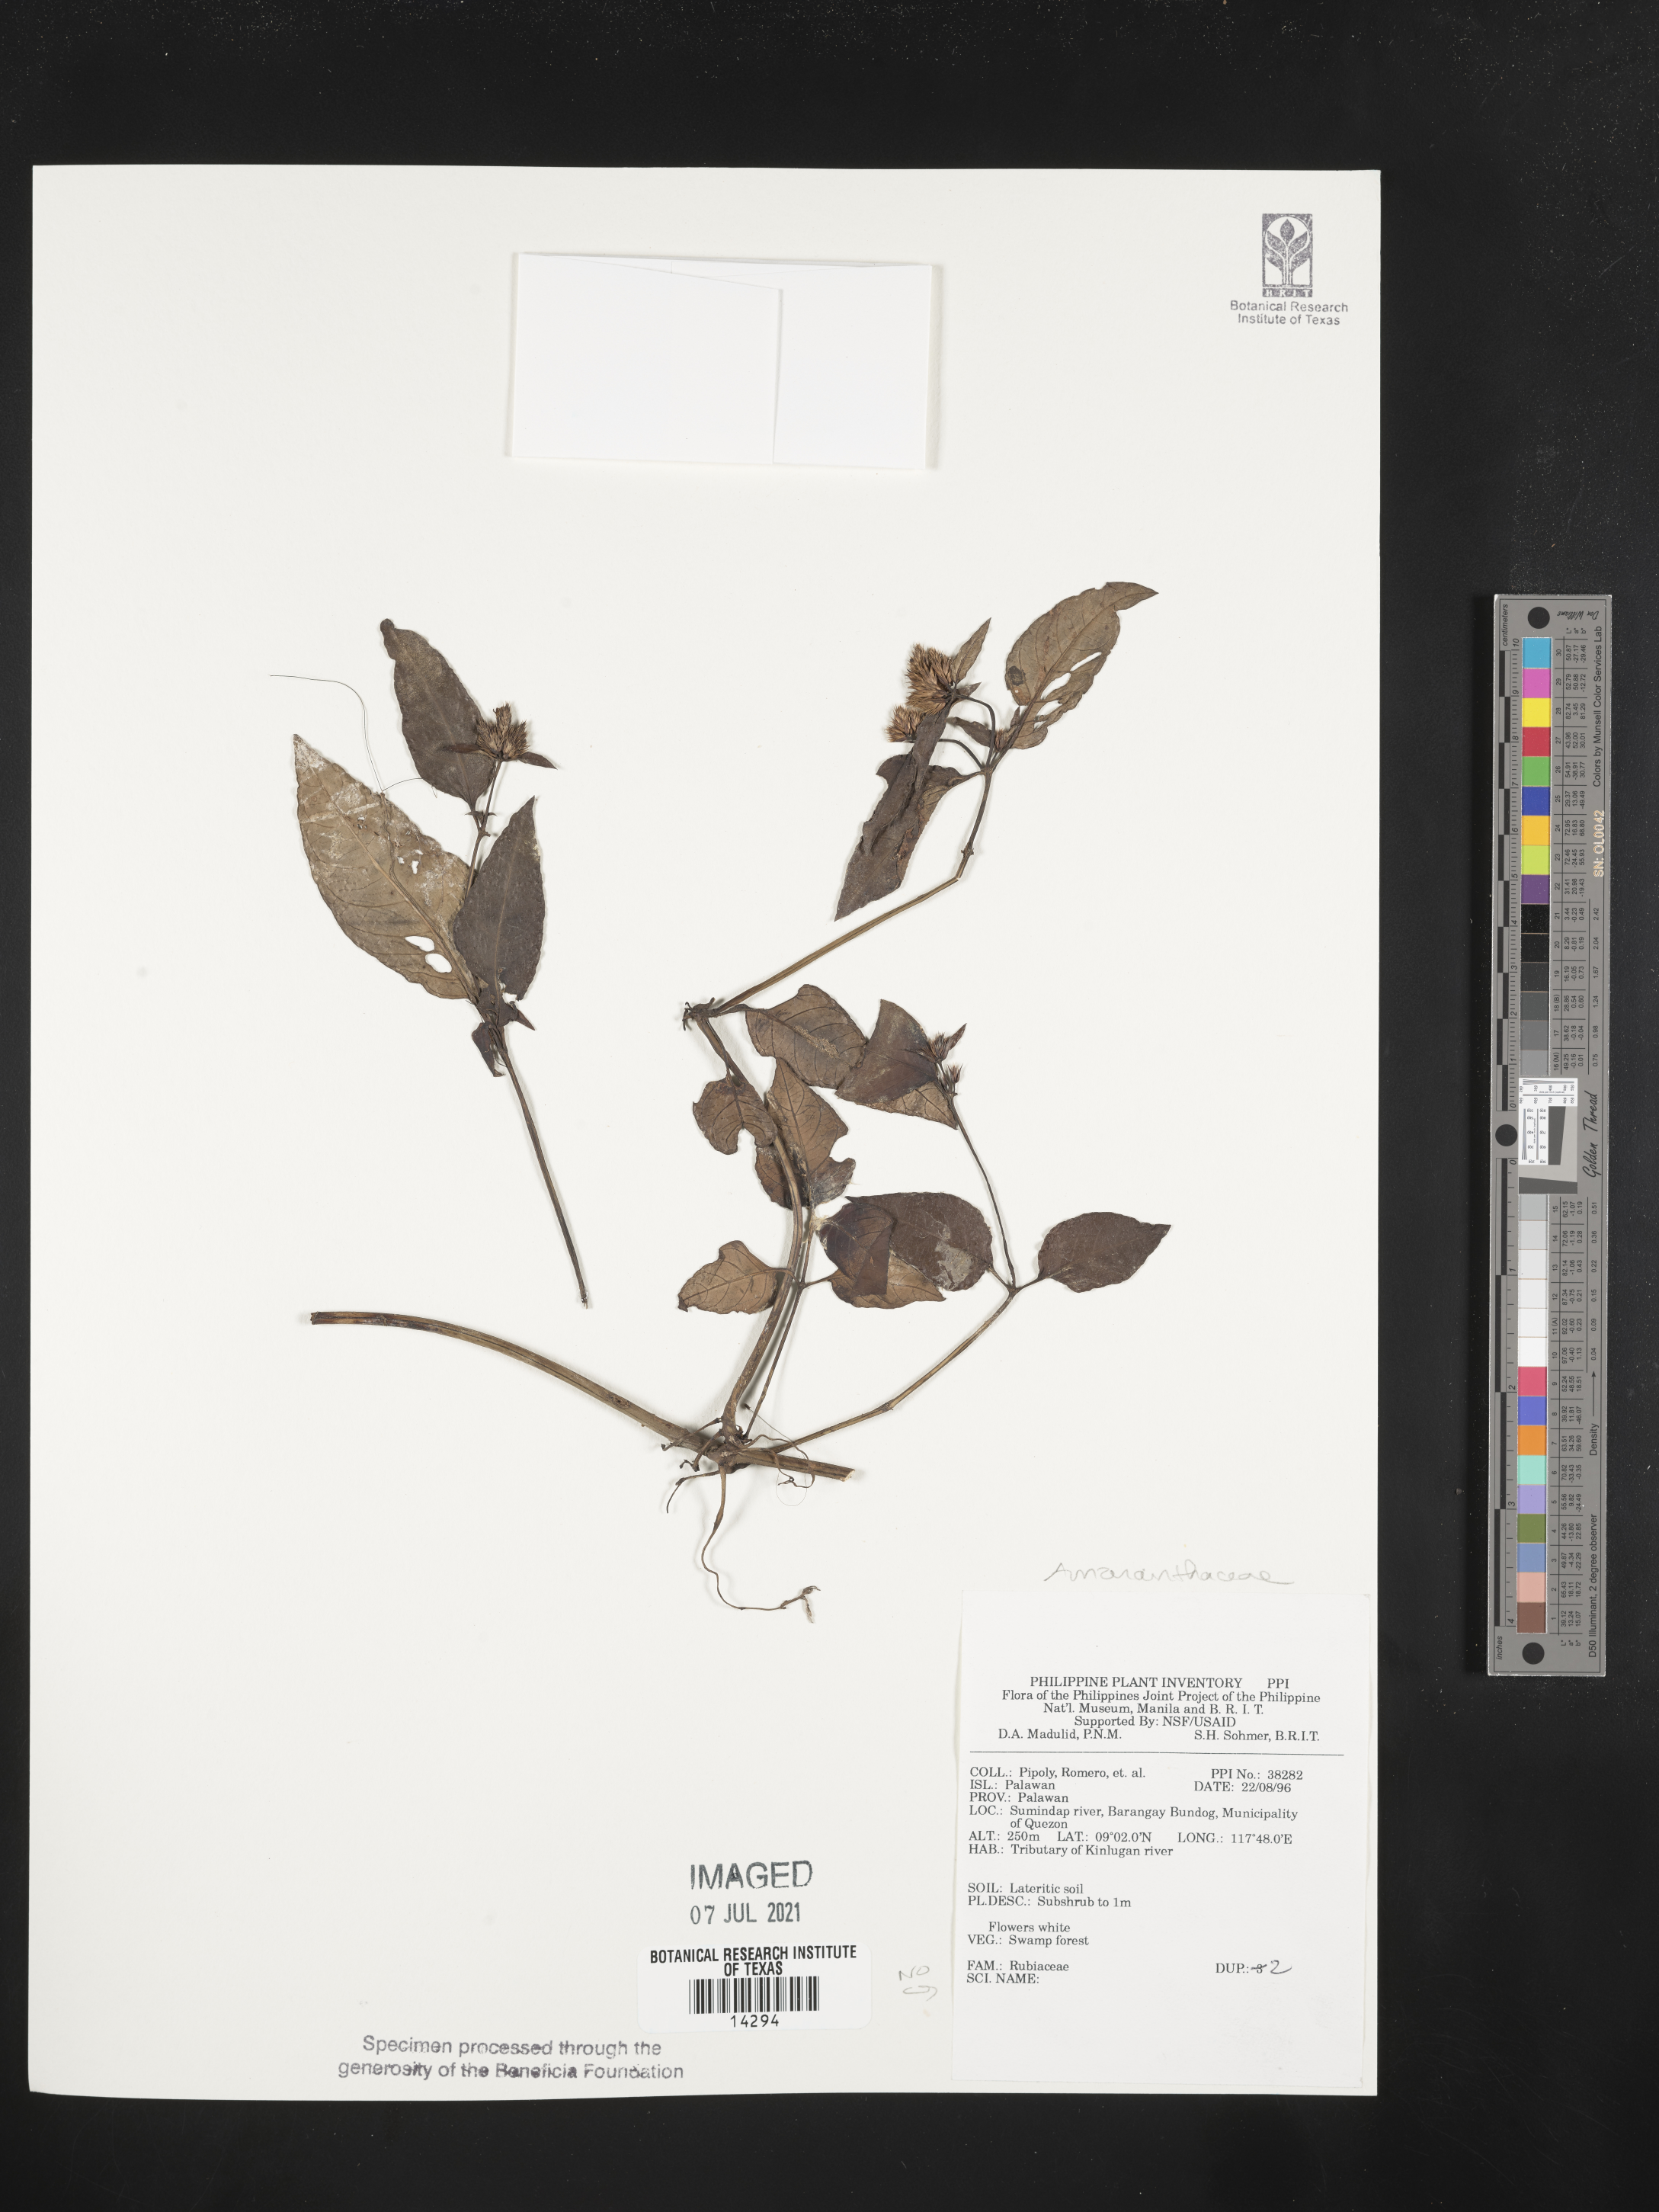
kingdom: Plantae
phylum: Tracheophyta
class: Magnoliopsida
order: Caryophyllales
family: Amaranthaceae
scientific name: Amaranthaceae
